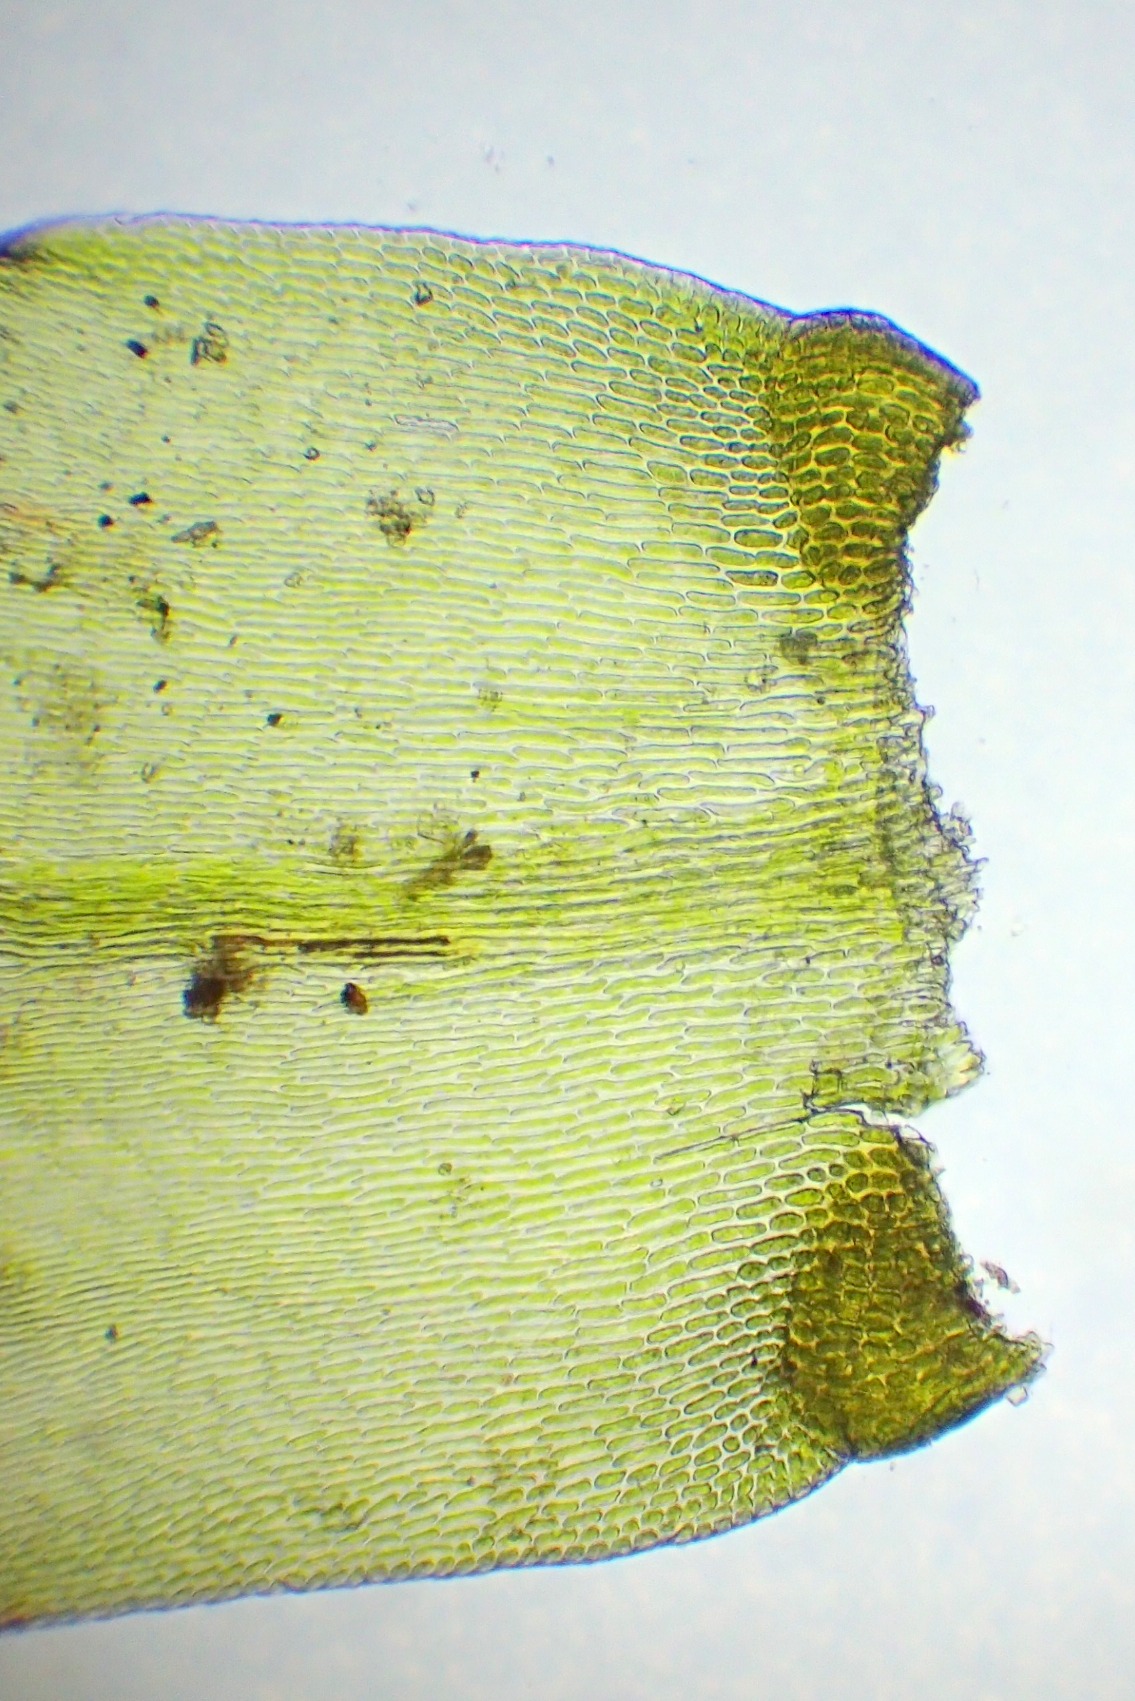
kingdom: Plantae
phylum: Bryophyta
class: Bryopsida
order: Hypnales
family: Lembophyllaceae
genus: Isothecium
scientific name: Isothecium alopecuroides
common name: Stor stammemos
